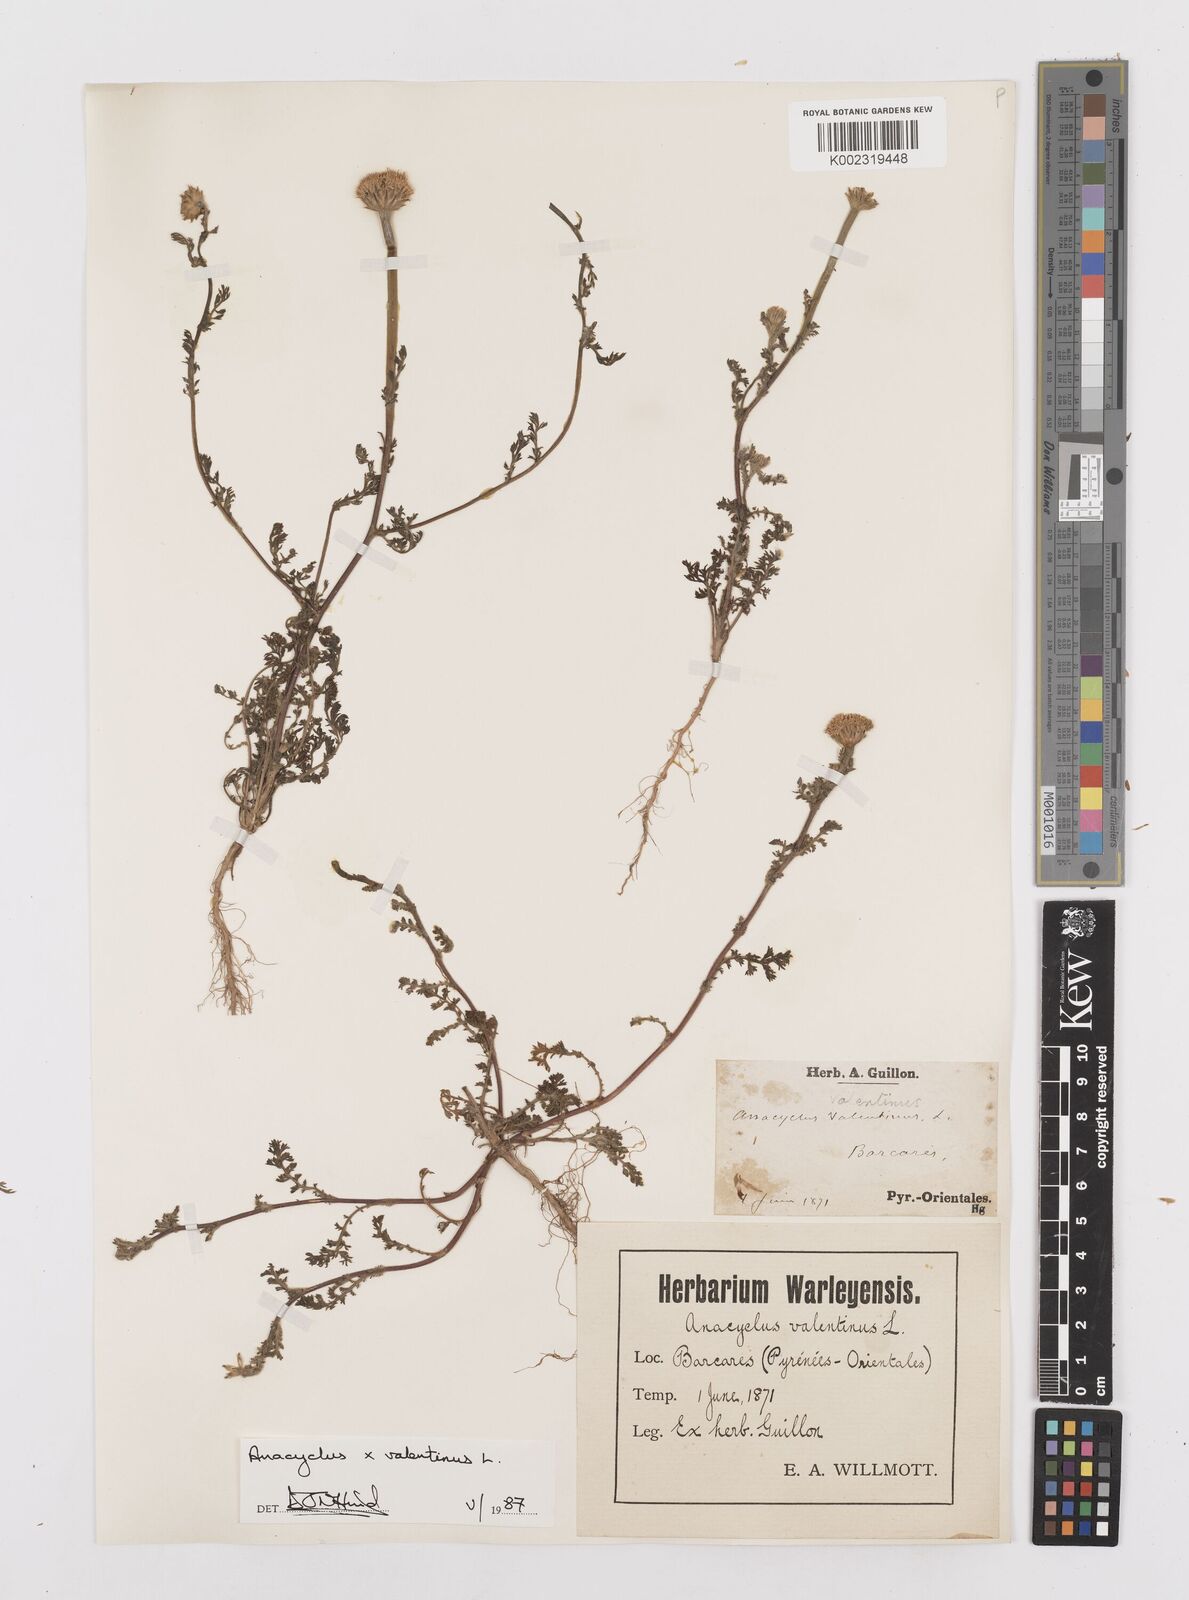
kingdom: Plantae
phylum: Tracheophyta
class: Magnoliopsida
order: Asterales
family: Asteraceae
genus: Anacyclus
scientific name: Anacyclus valentinus
